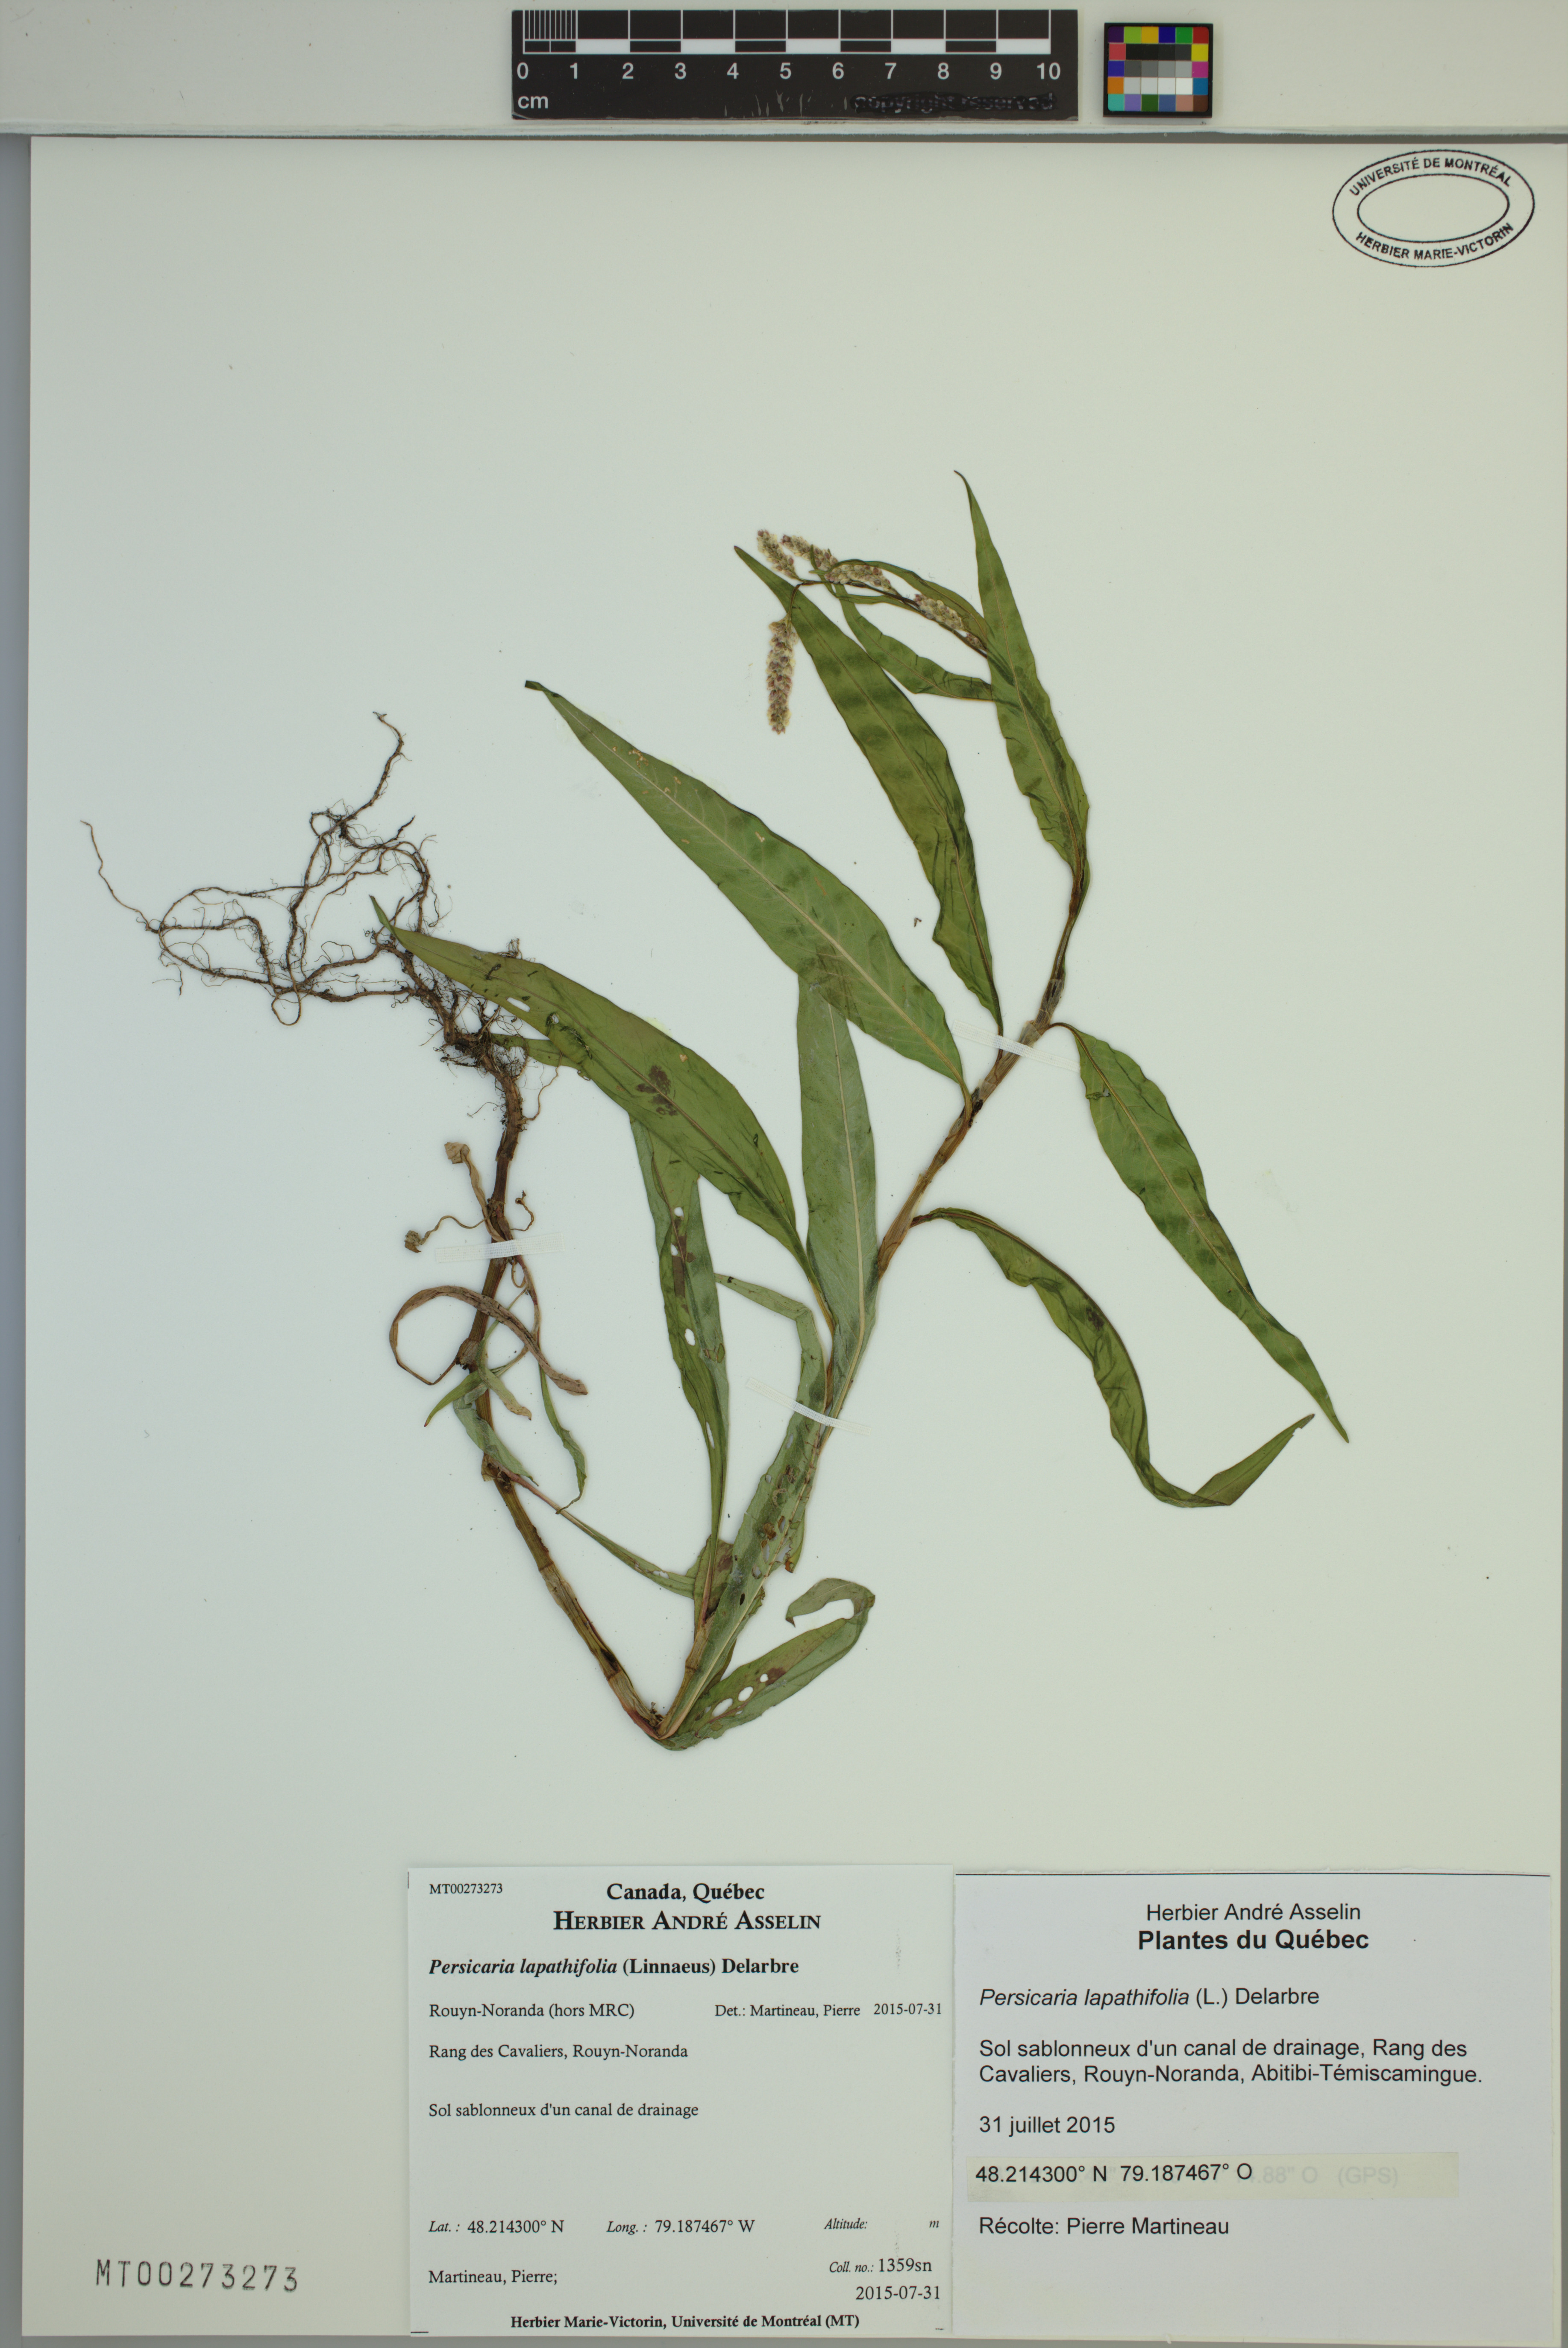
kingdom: Plantae
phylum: Tracheophyta
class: Magnoliopsida
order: Caryophyllales
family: Polygonaceae
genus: Persicaria
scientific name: Persicaria lapathifolia
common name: Curlytop knotweed
